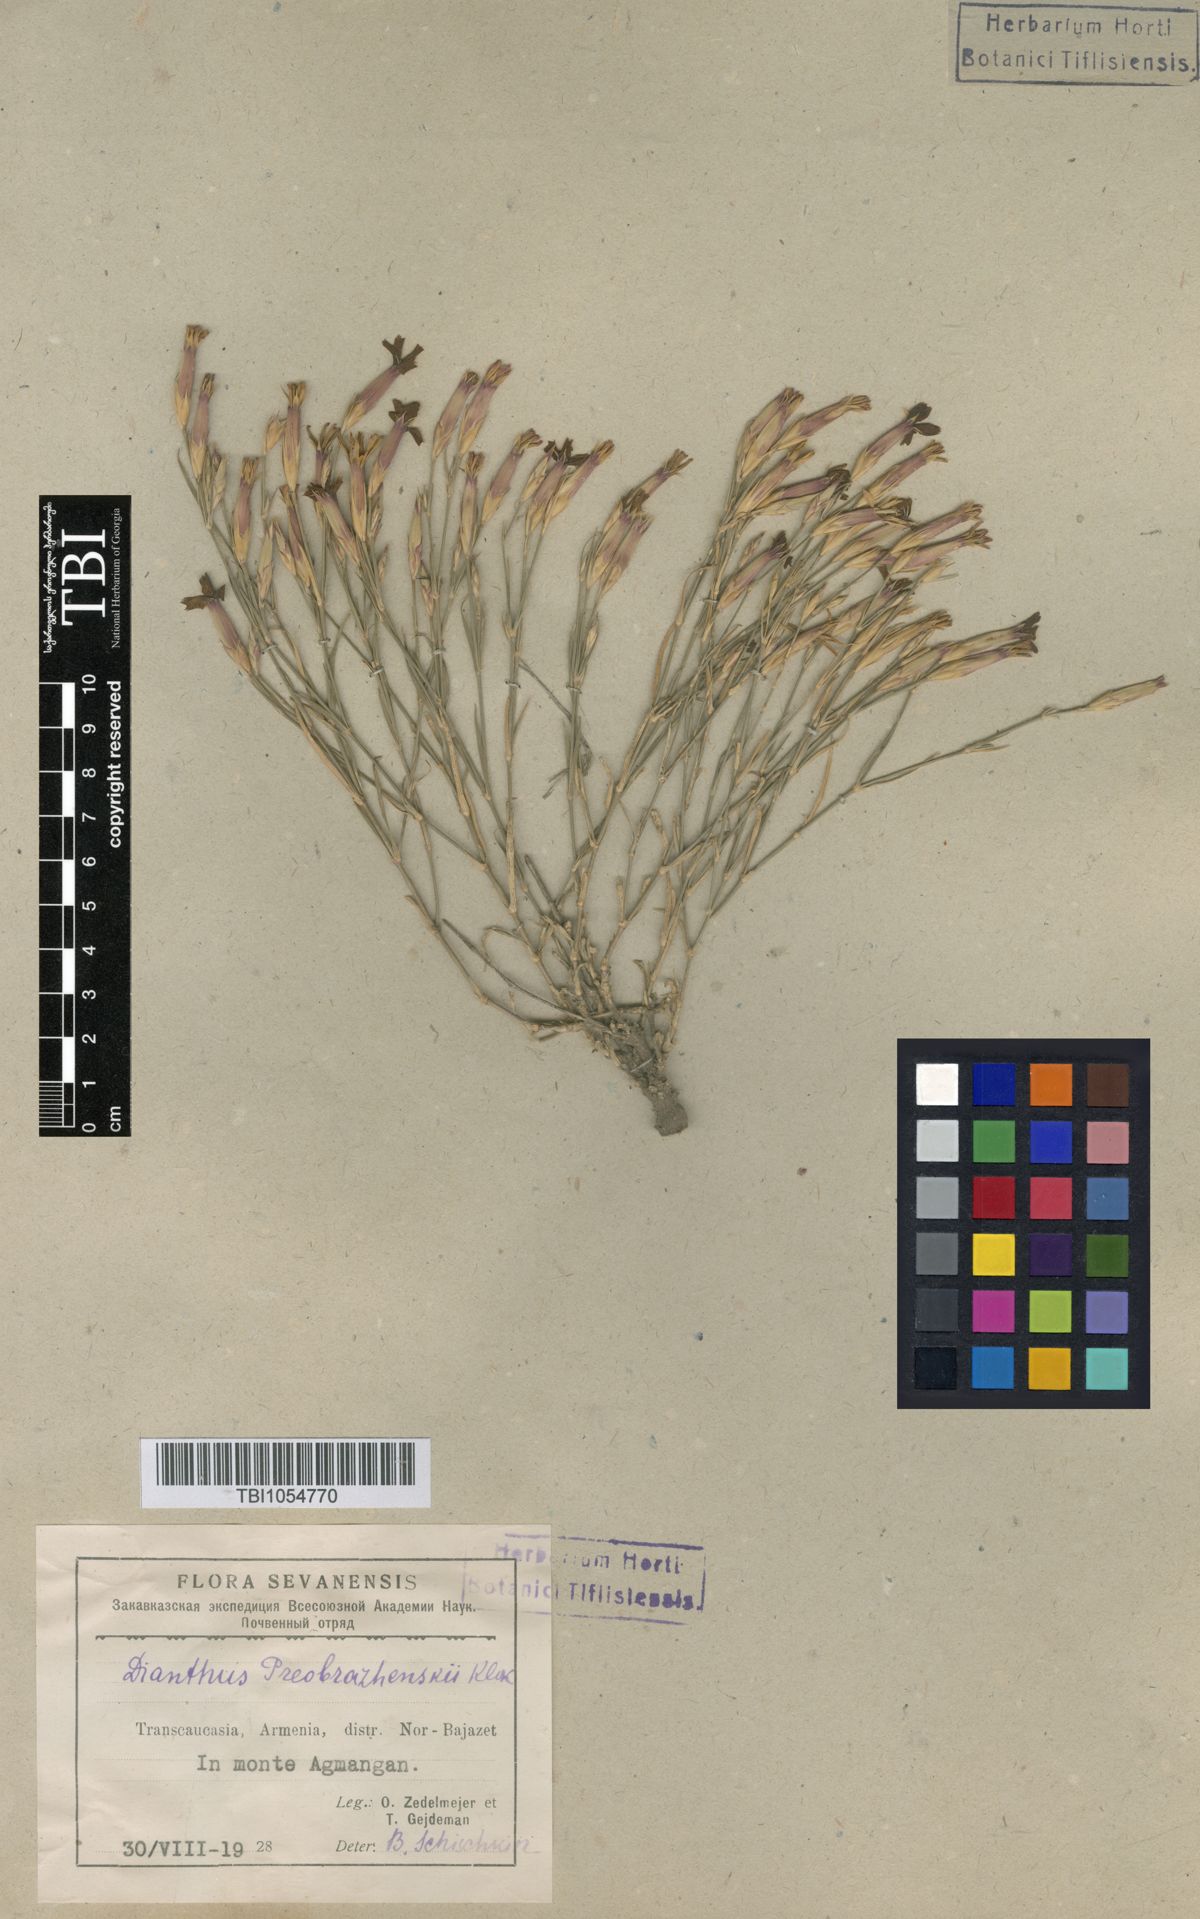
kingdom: Plantae
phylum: Tracheophyta
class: Magnoliopsida
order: Caryophyllales
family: Caryophyllaceae
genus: Dianthus
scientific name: Dianthus bicolor
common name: Bicolour pink
